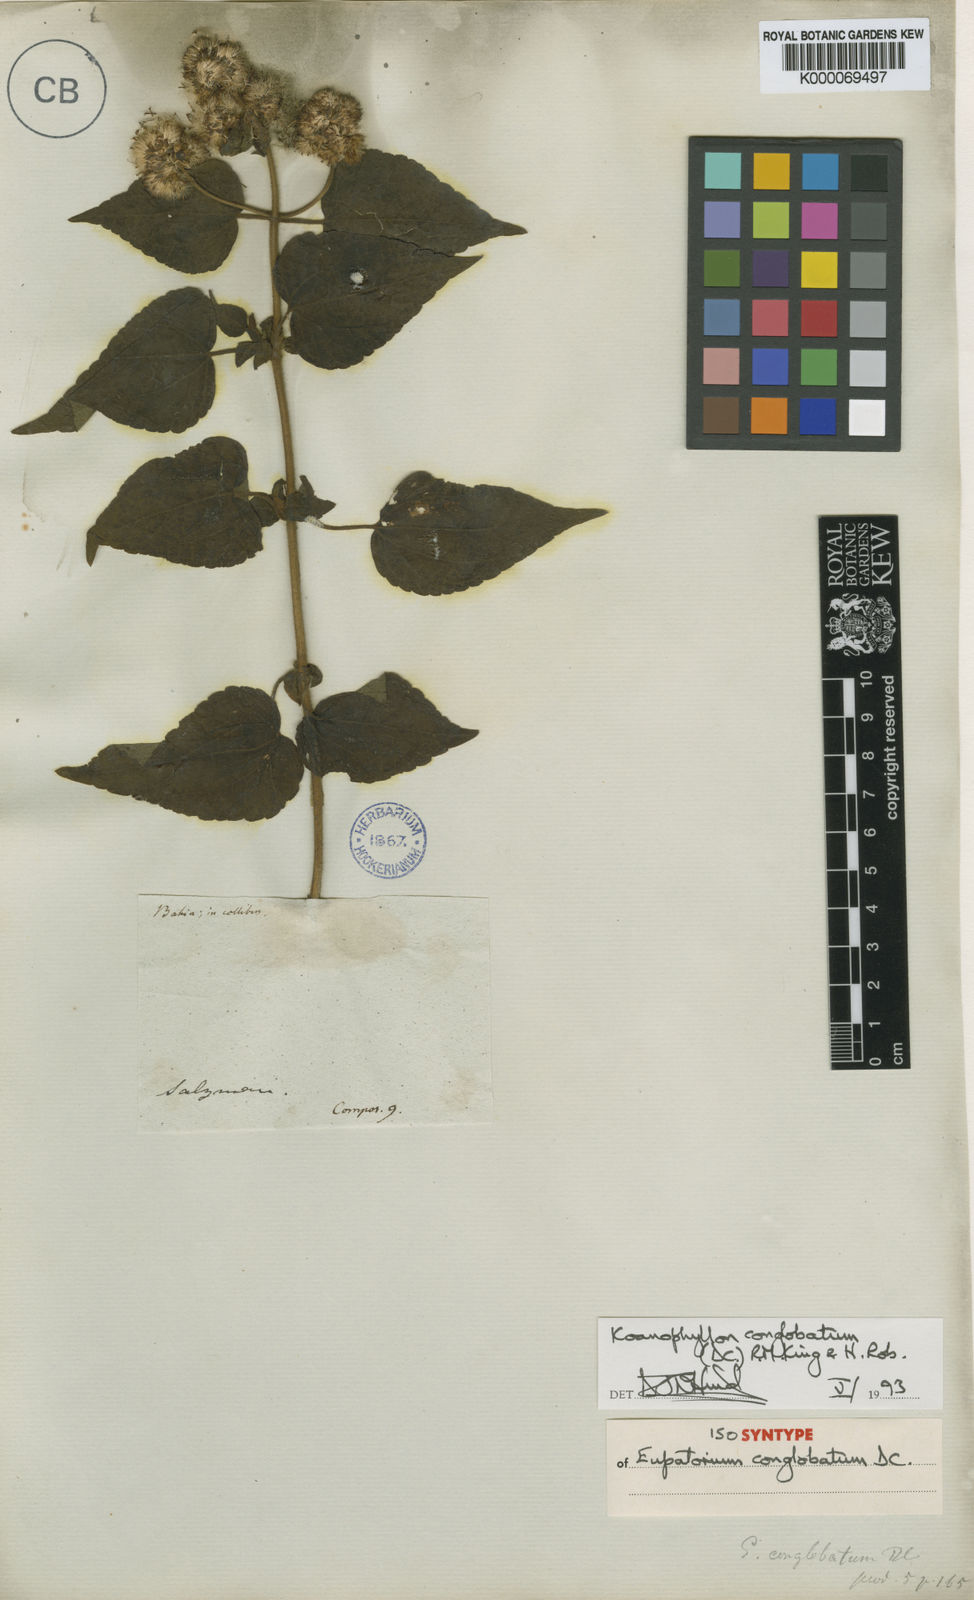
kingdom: Plantae
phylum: Tracheophyta
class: Magnoliopsida
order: Asterales
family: Asteraceae
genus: Koanophyllon
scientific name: Koanophyllon conglobatum
